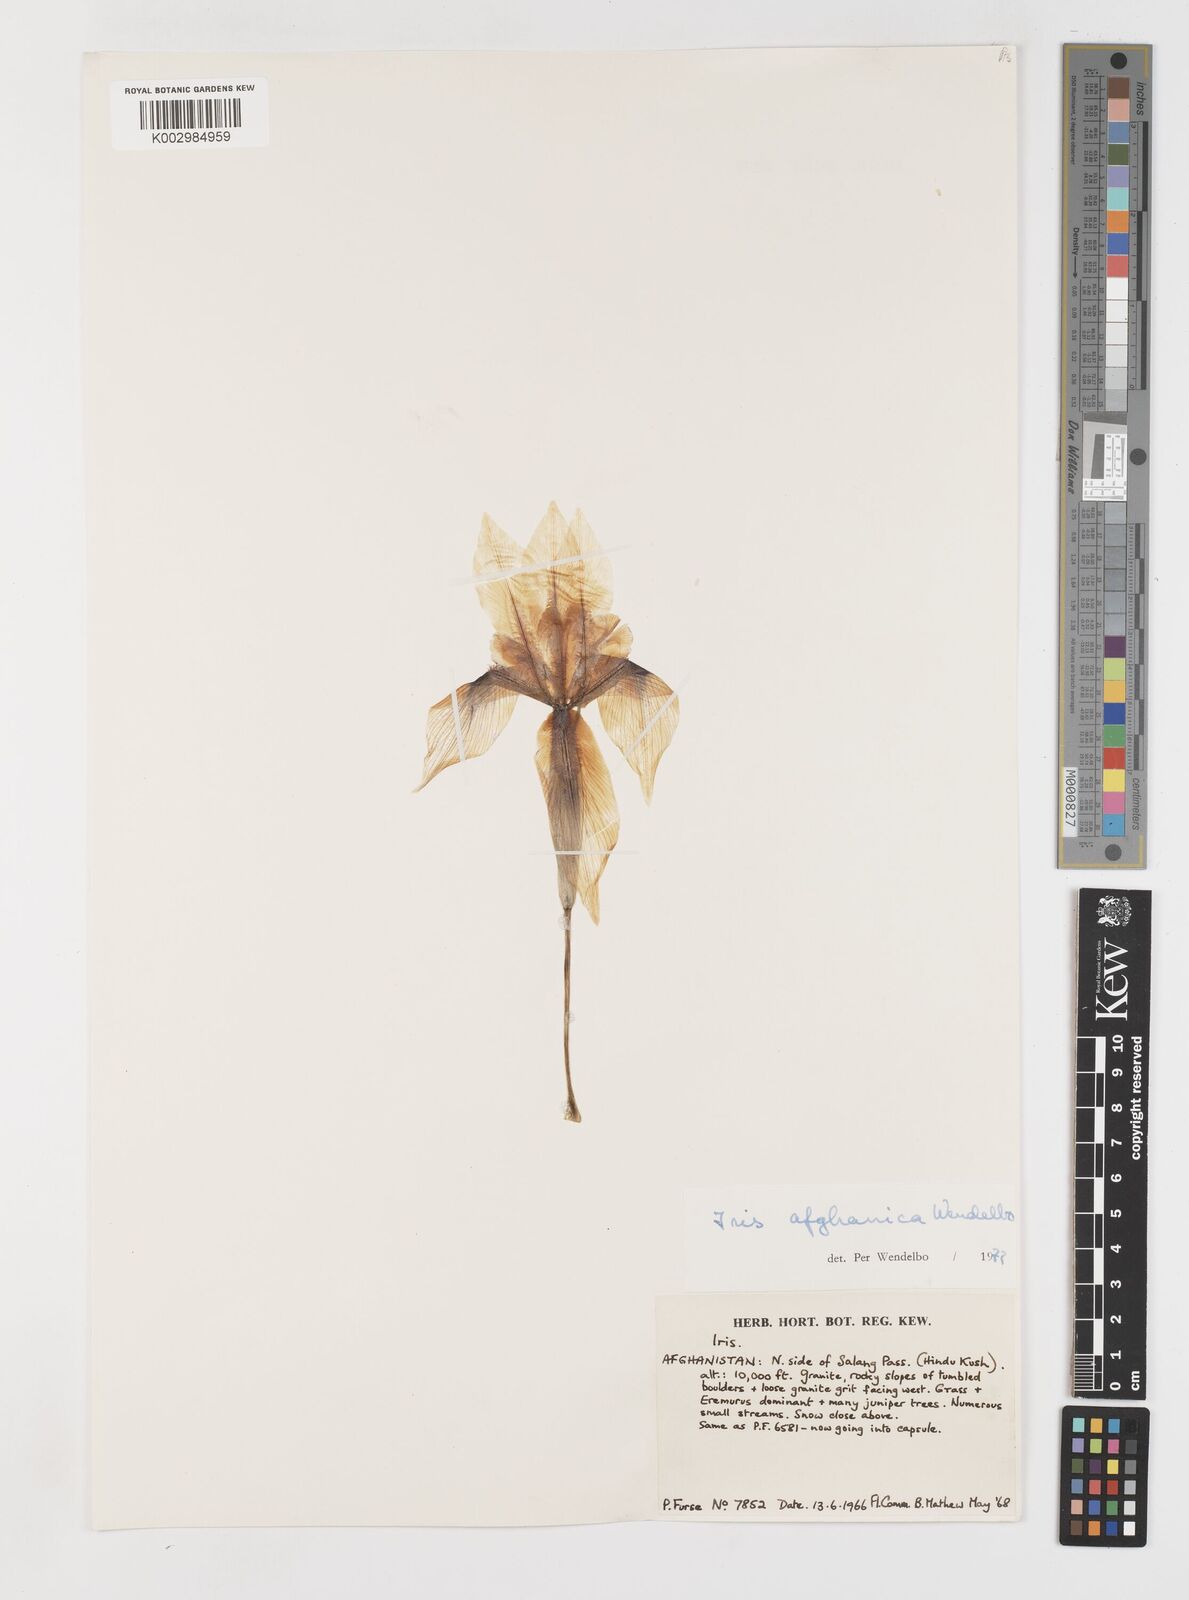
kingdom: Plantae
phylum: Tracheophyta
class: Liliopsida
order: Asparagales
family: Iridaceae
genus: Iris
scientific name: Iris afghanica
